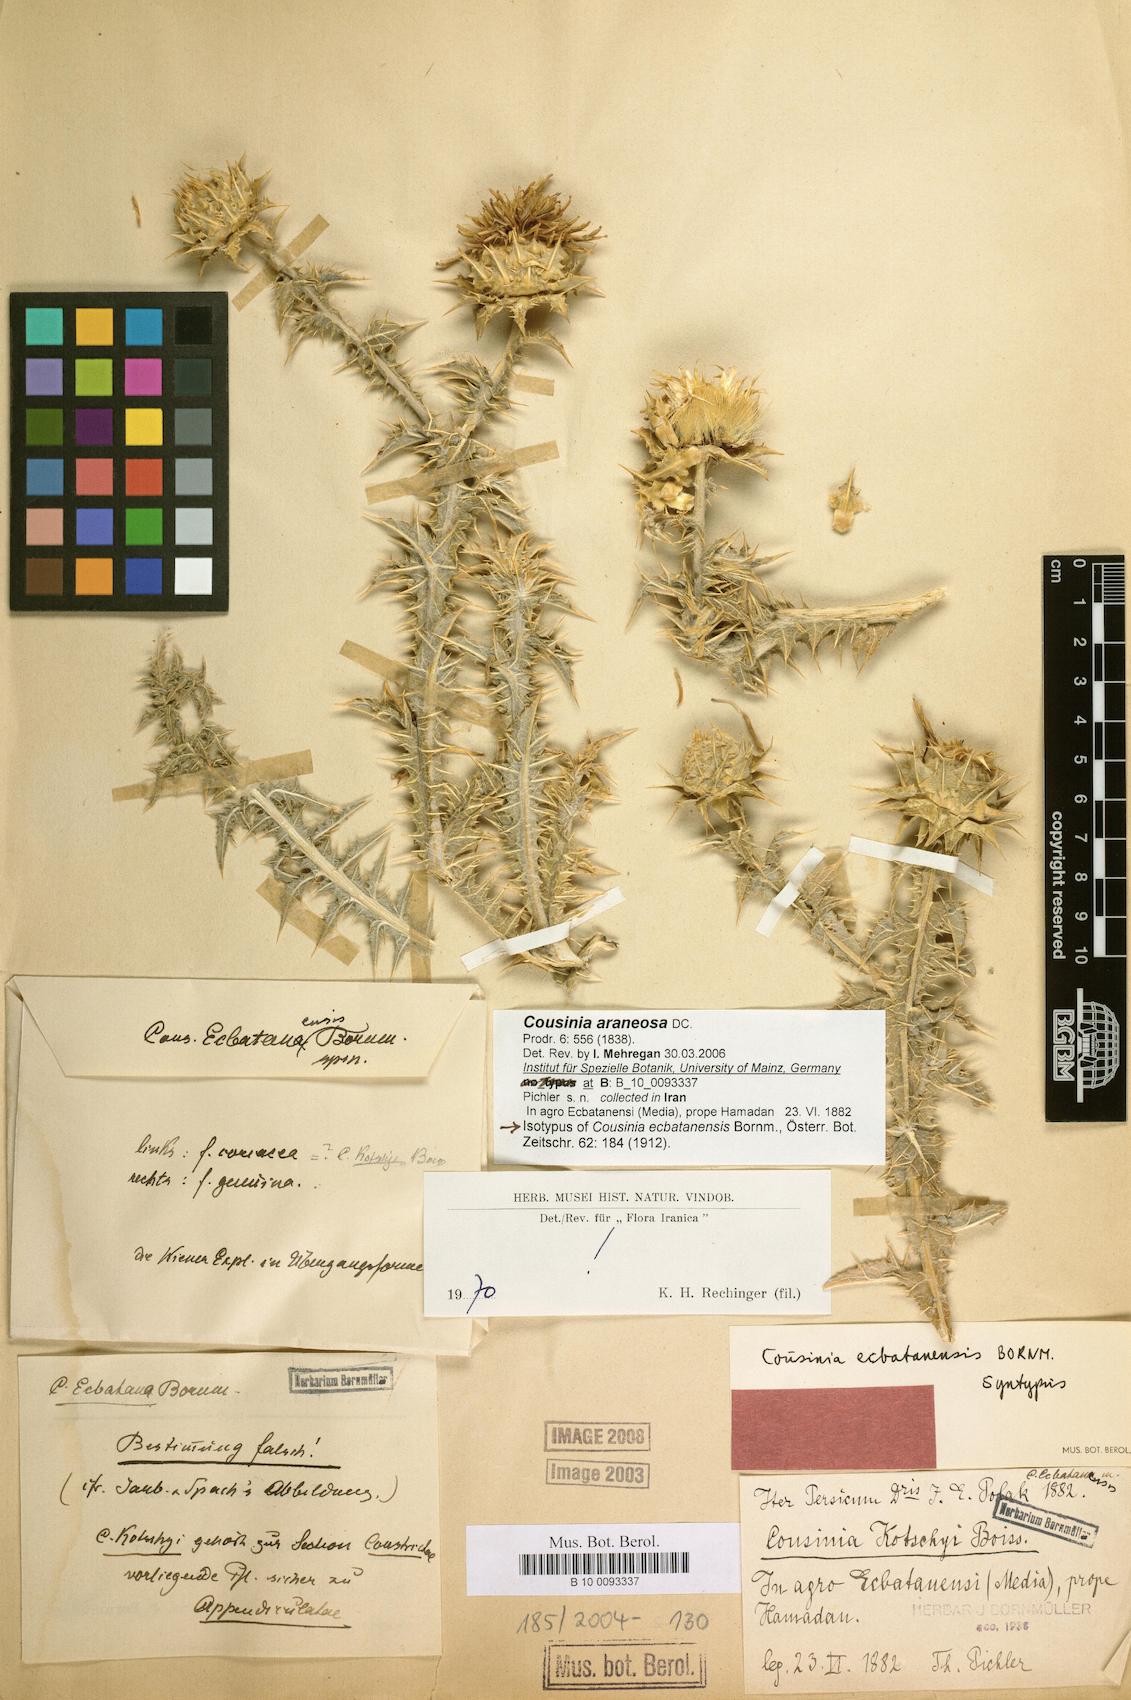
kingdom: Plantae
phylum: Tracheophyta
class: Magnoliopsida
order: Asterales
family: Asteraceae
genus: Cousinia
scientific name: Cousinia araneosa
